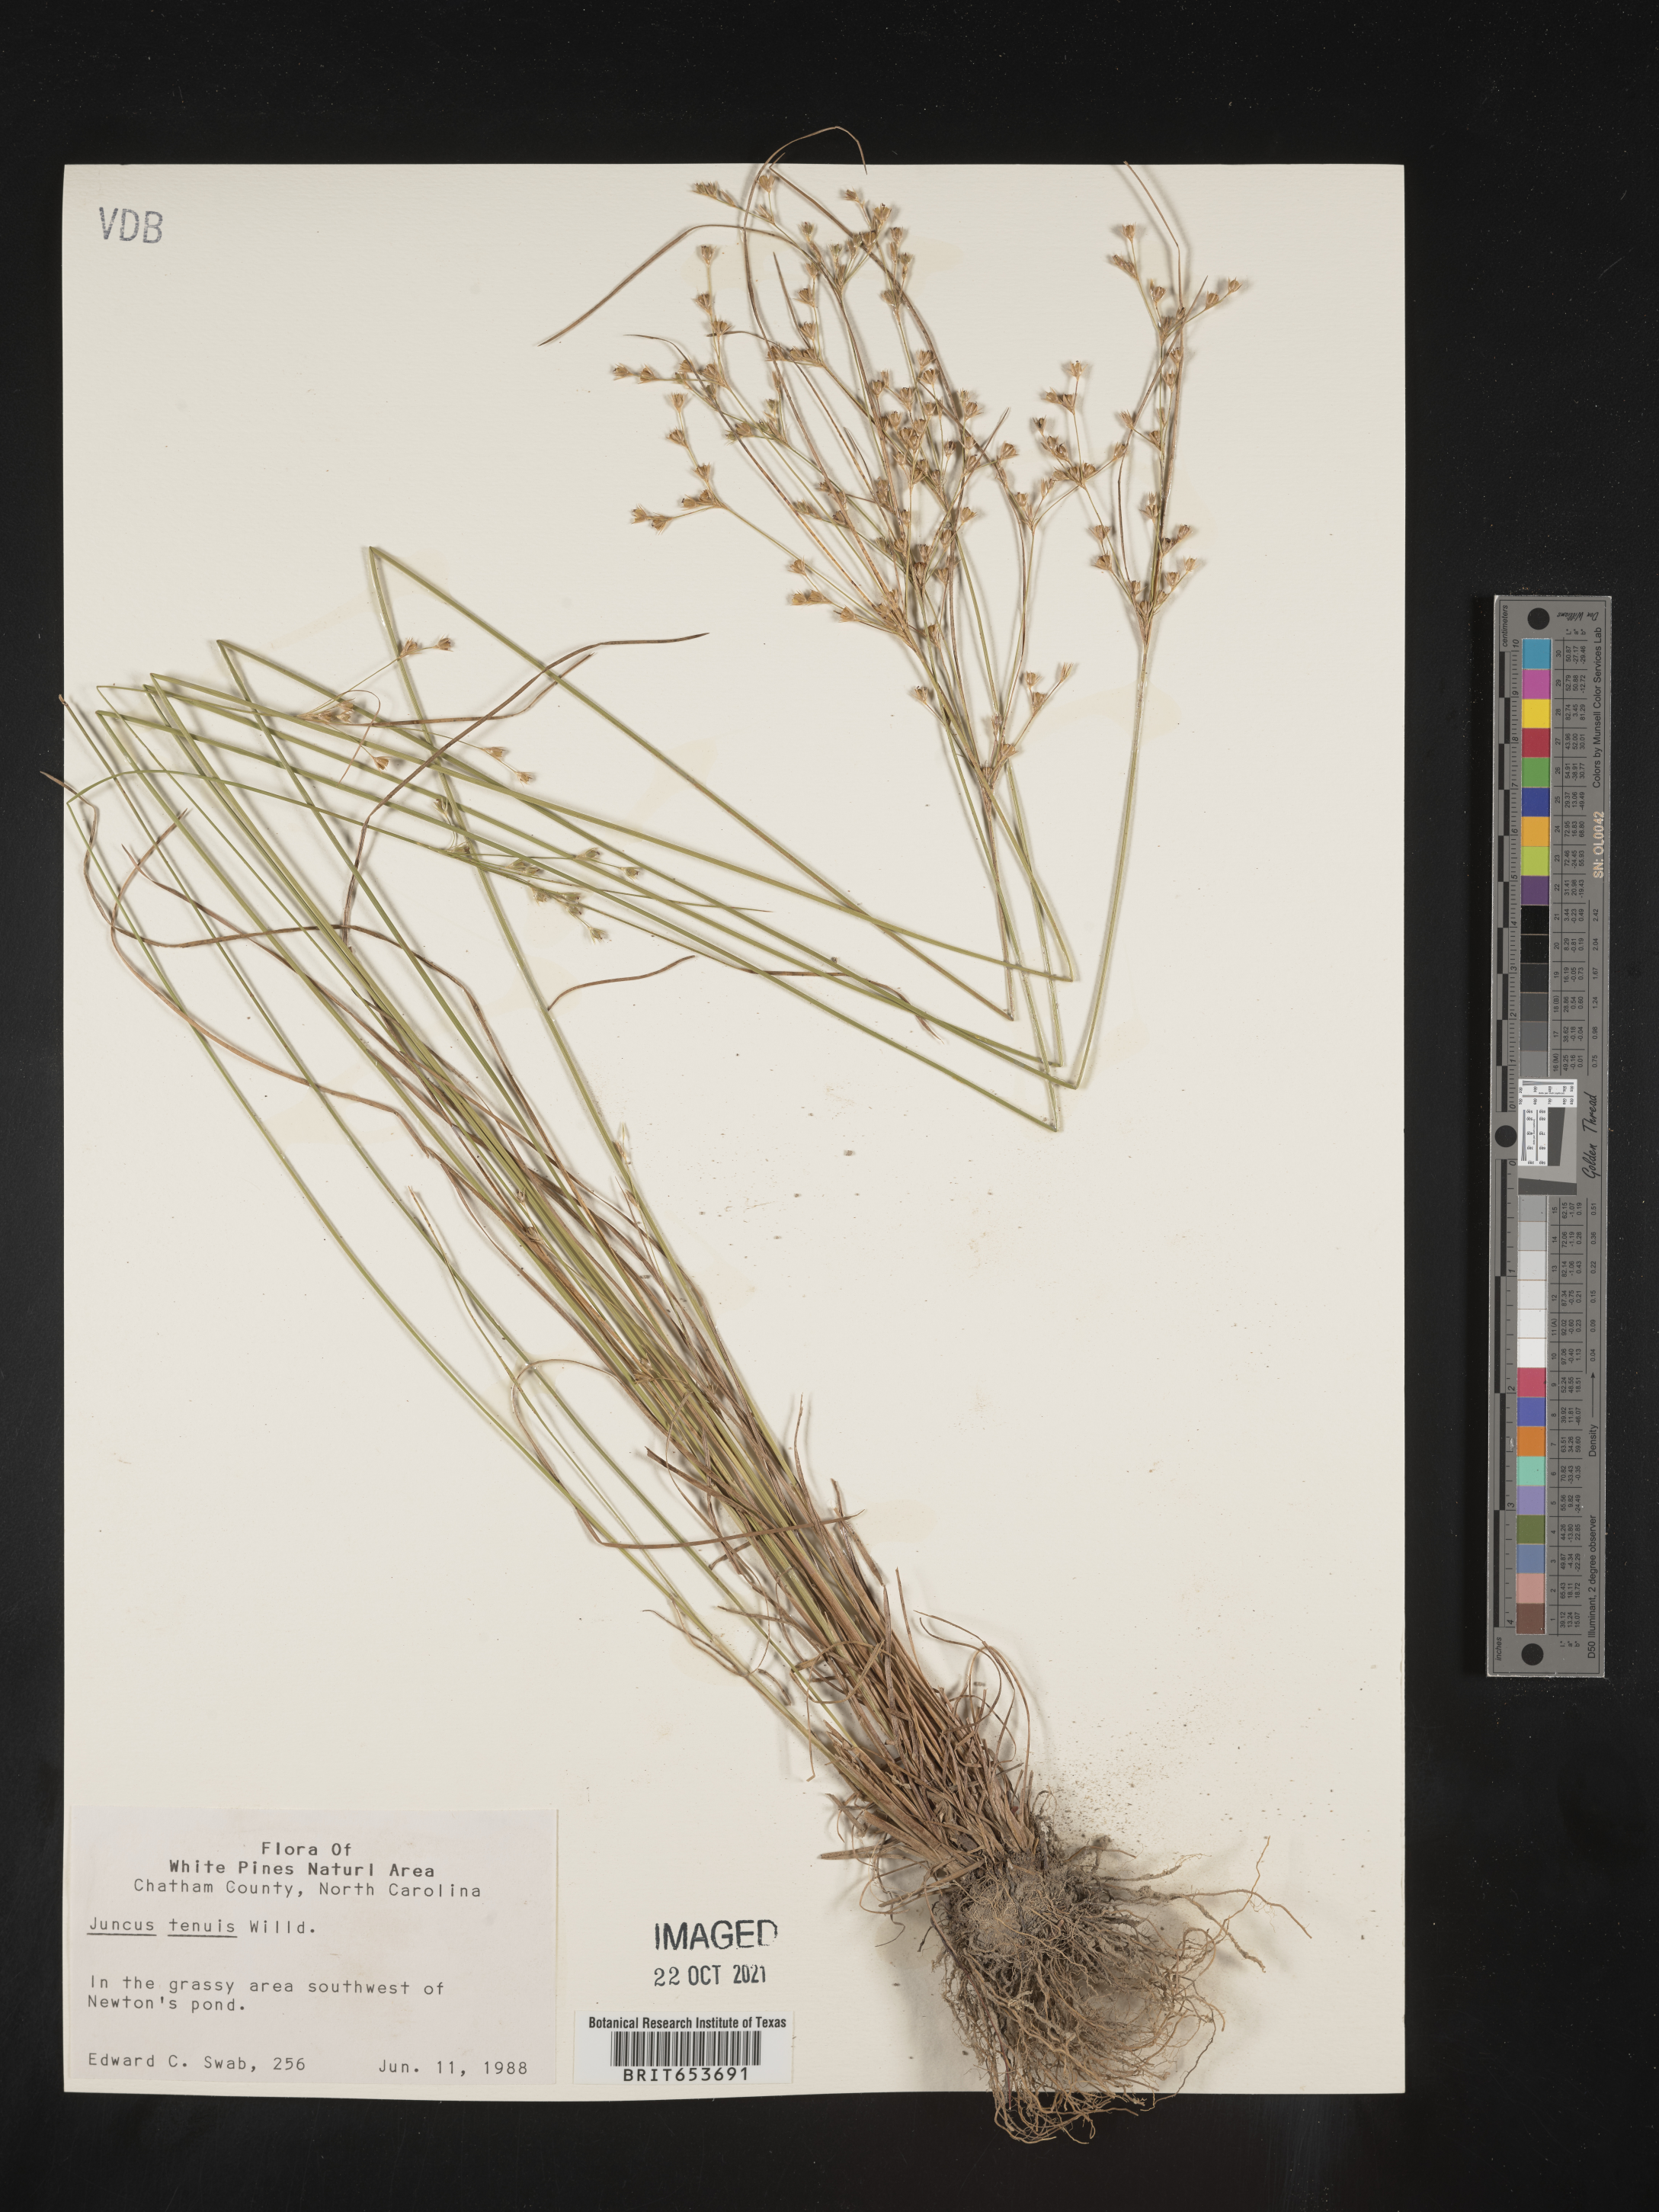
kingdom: Plantae
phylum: Tracheophyta
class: Liliopsida
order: Poales
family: Juncaceae
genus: Juncus
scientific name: Juncus tenuis
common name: Slender rush
